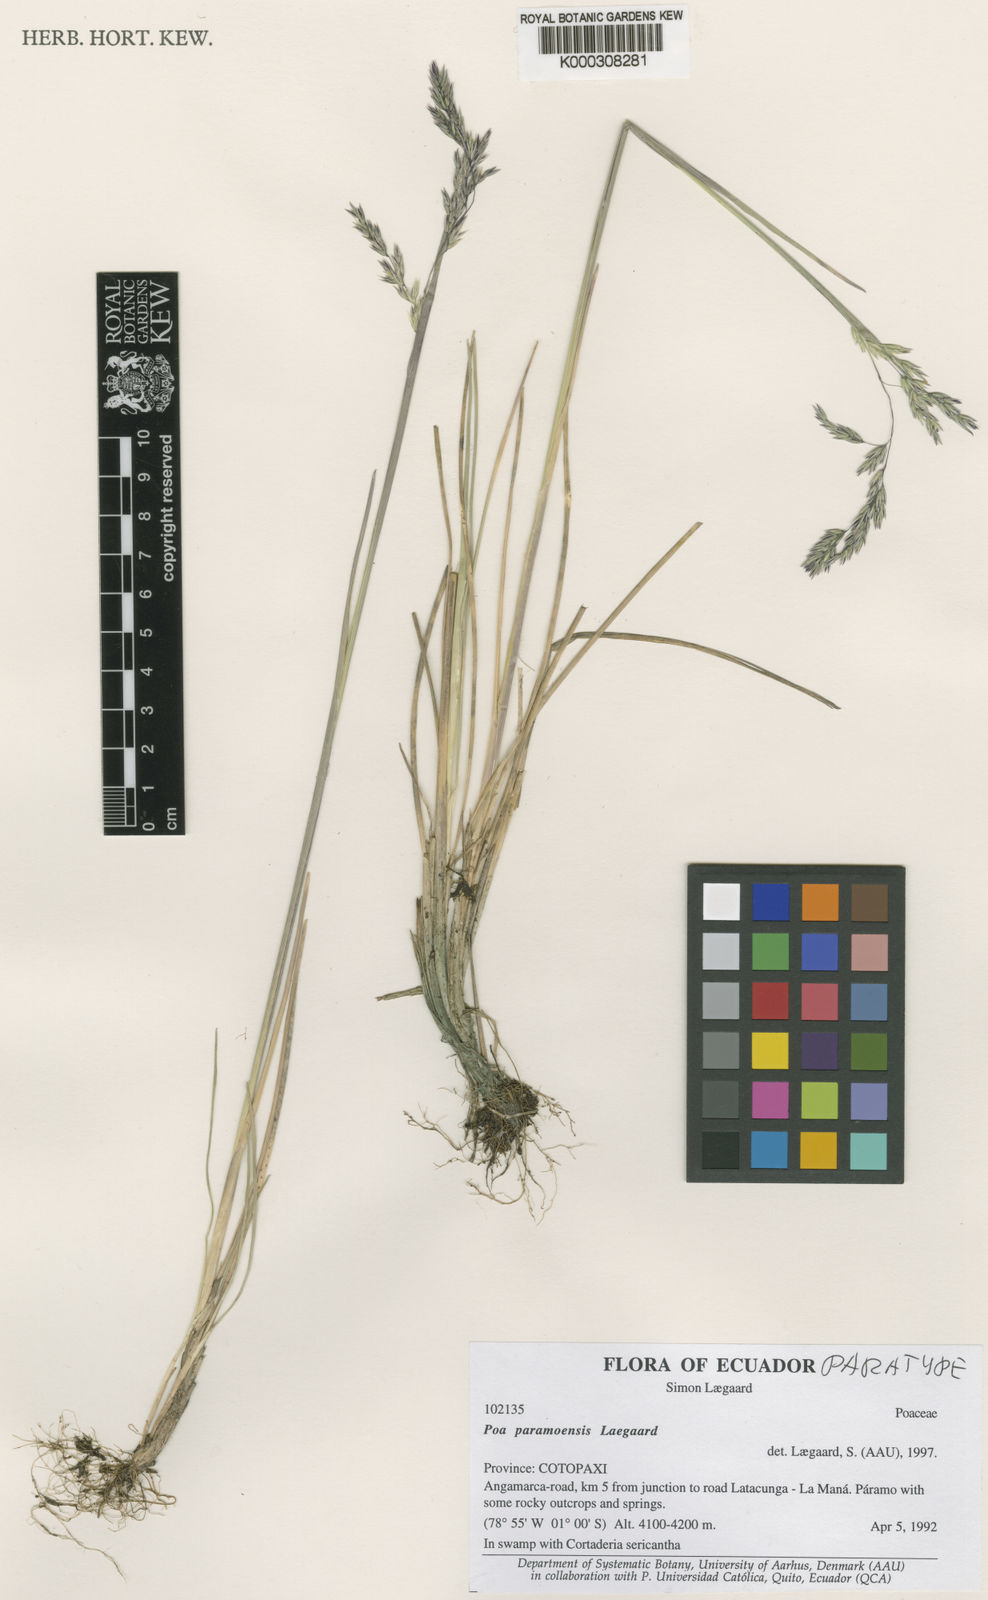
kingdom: Plantae
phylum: Tracheophyta
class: Liliopsida
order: Poales
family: Poaceae
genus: Poa
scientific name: Poa
